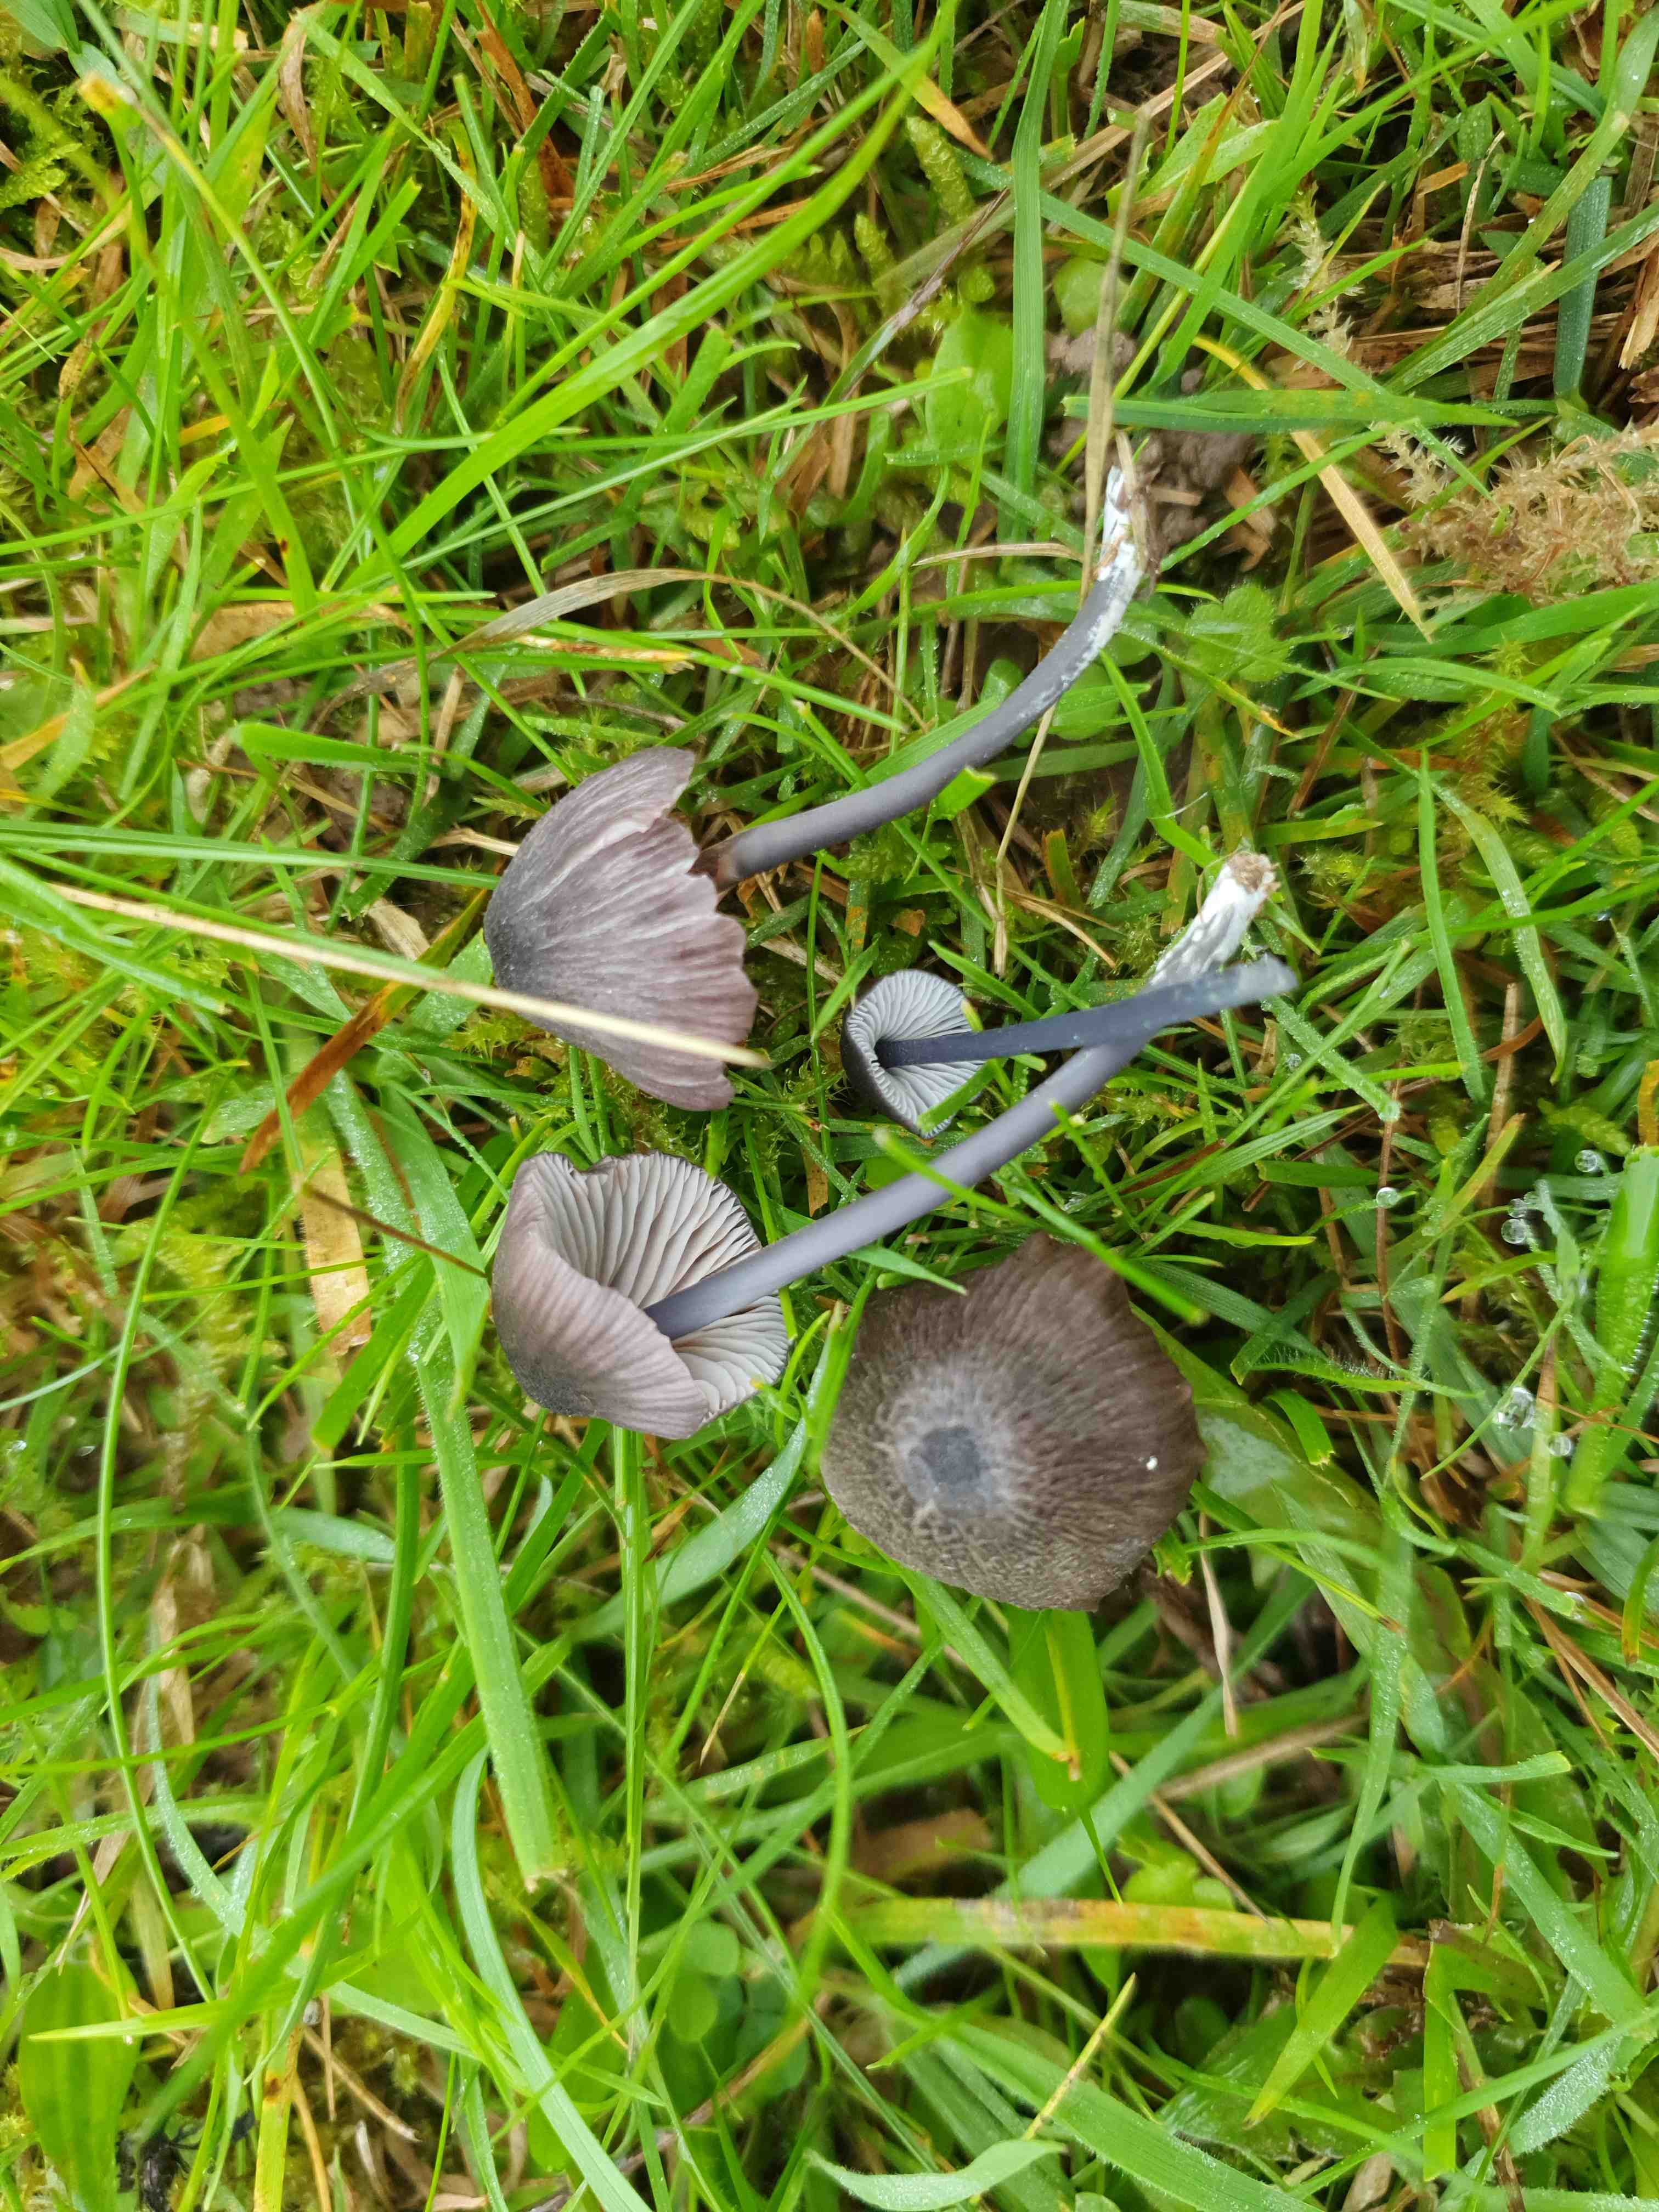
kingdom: Fungi
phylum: Basidiomycota
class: Agaricomycetes
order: Agaricales
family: Entolomataceae
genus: Entoloma
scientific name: Entoloma
